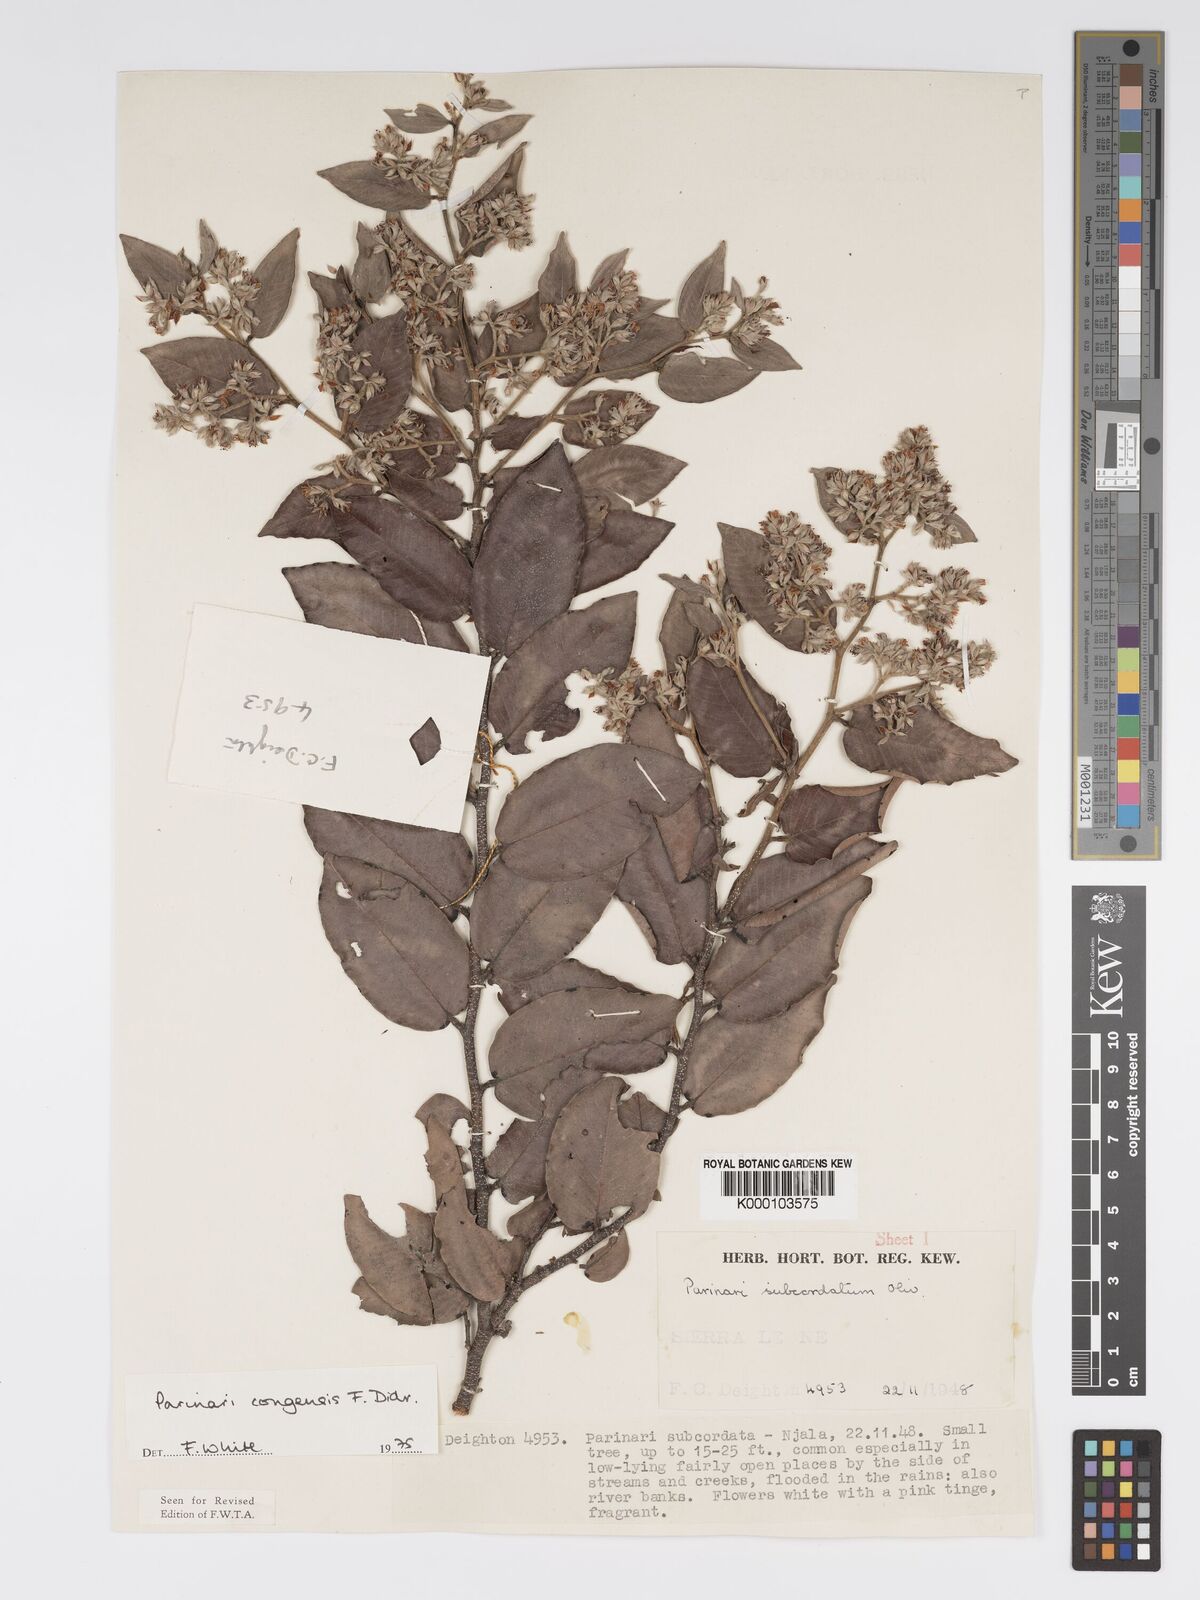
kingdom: Plantae
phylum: Tracheophyta
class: Magnoliopsida
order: Malpighiales
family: Chrysobalanaceae
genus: Parinari
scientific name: Parinari congensis
